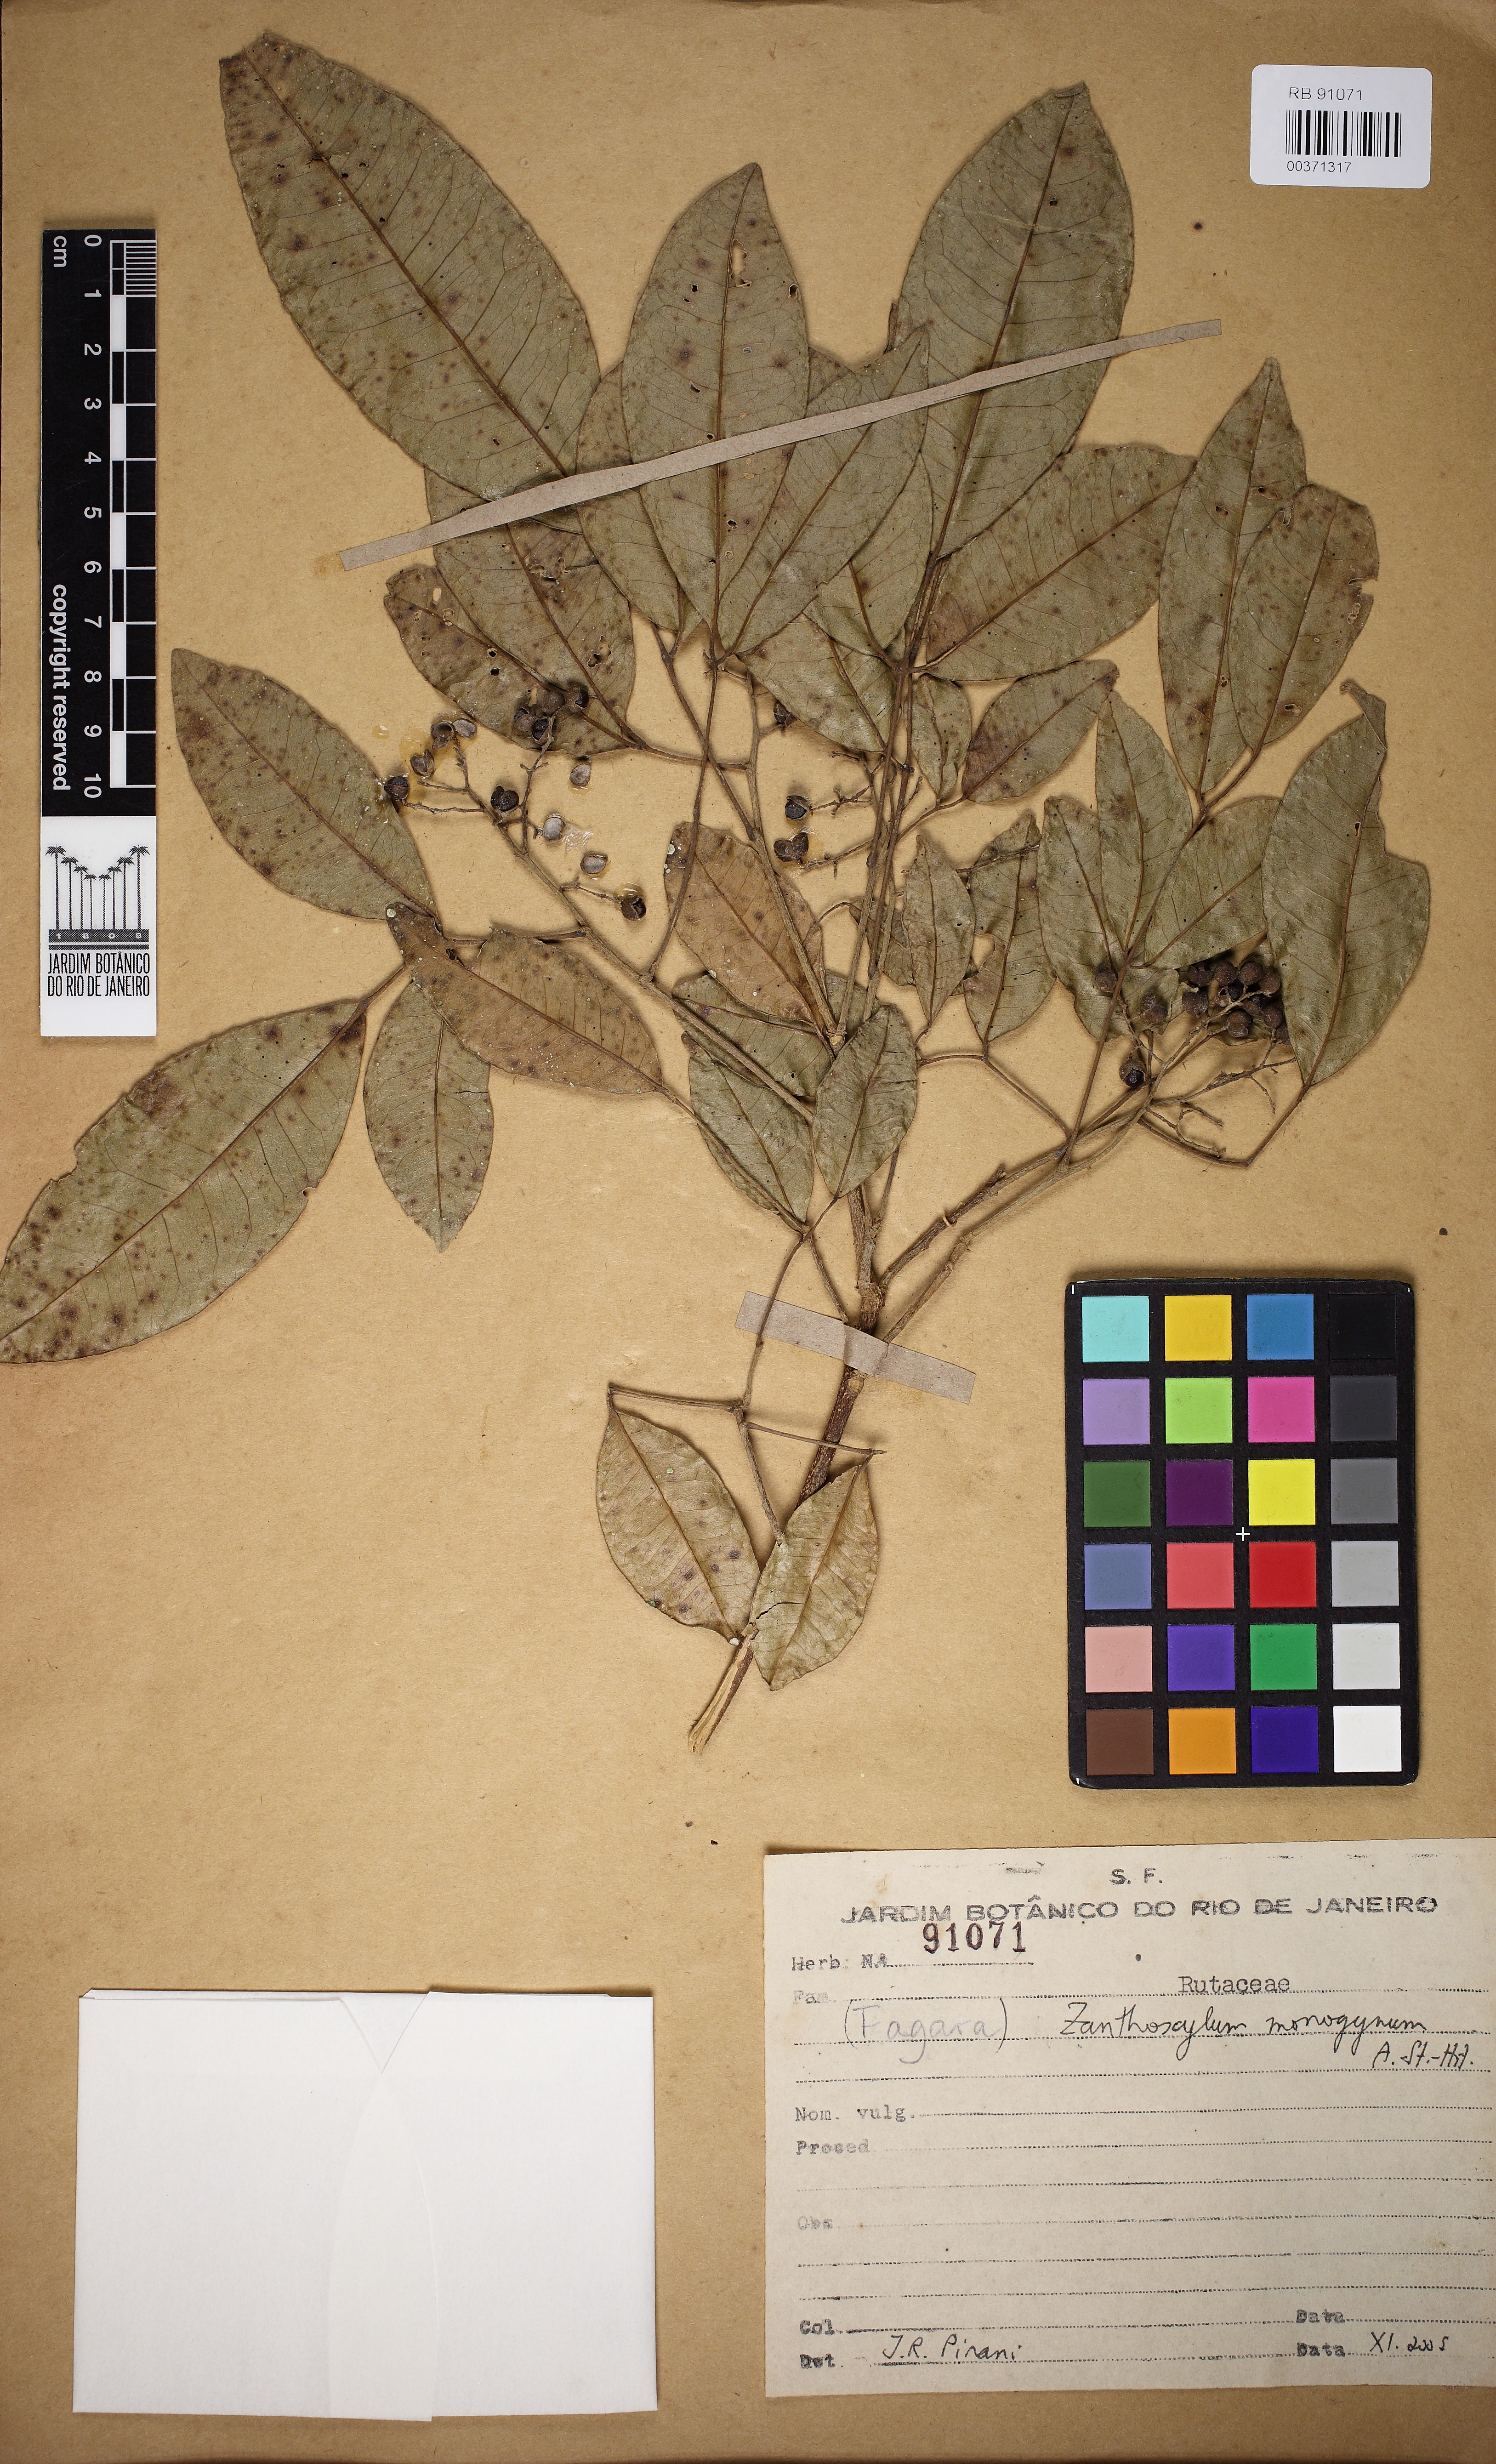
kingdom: Plantae
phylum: Tracheophyta
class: Magnoliopsida
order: Sapindales
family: Rutaceae
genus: Zanthoxylum
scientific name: Zanthoxylum monogynum
